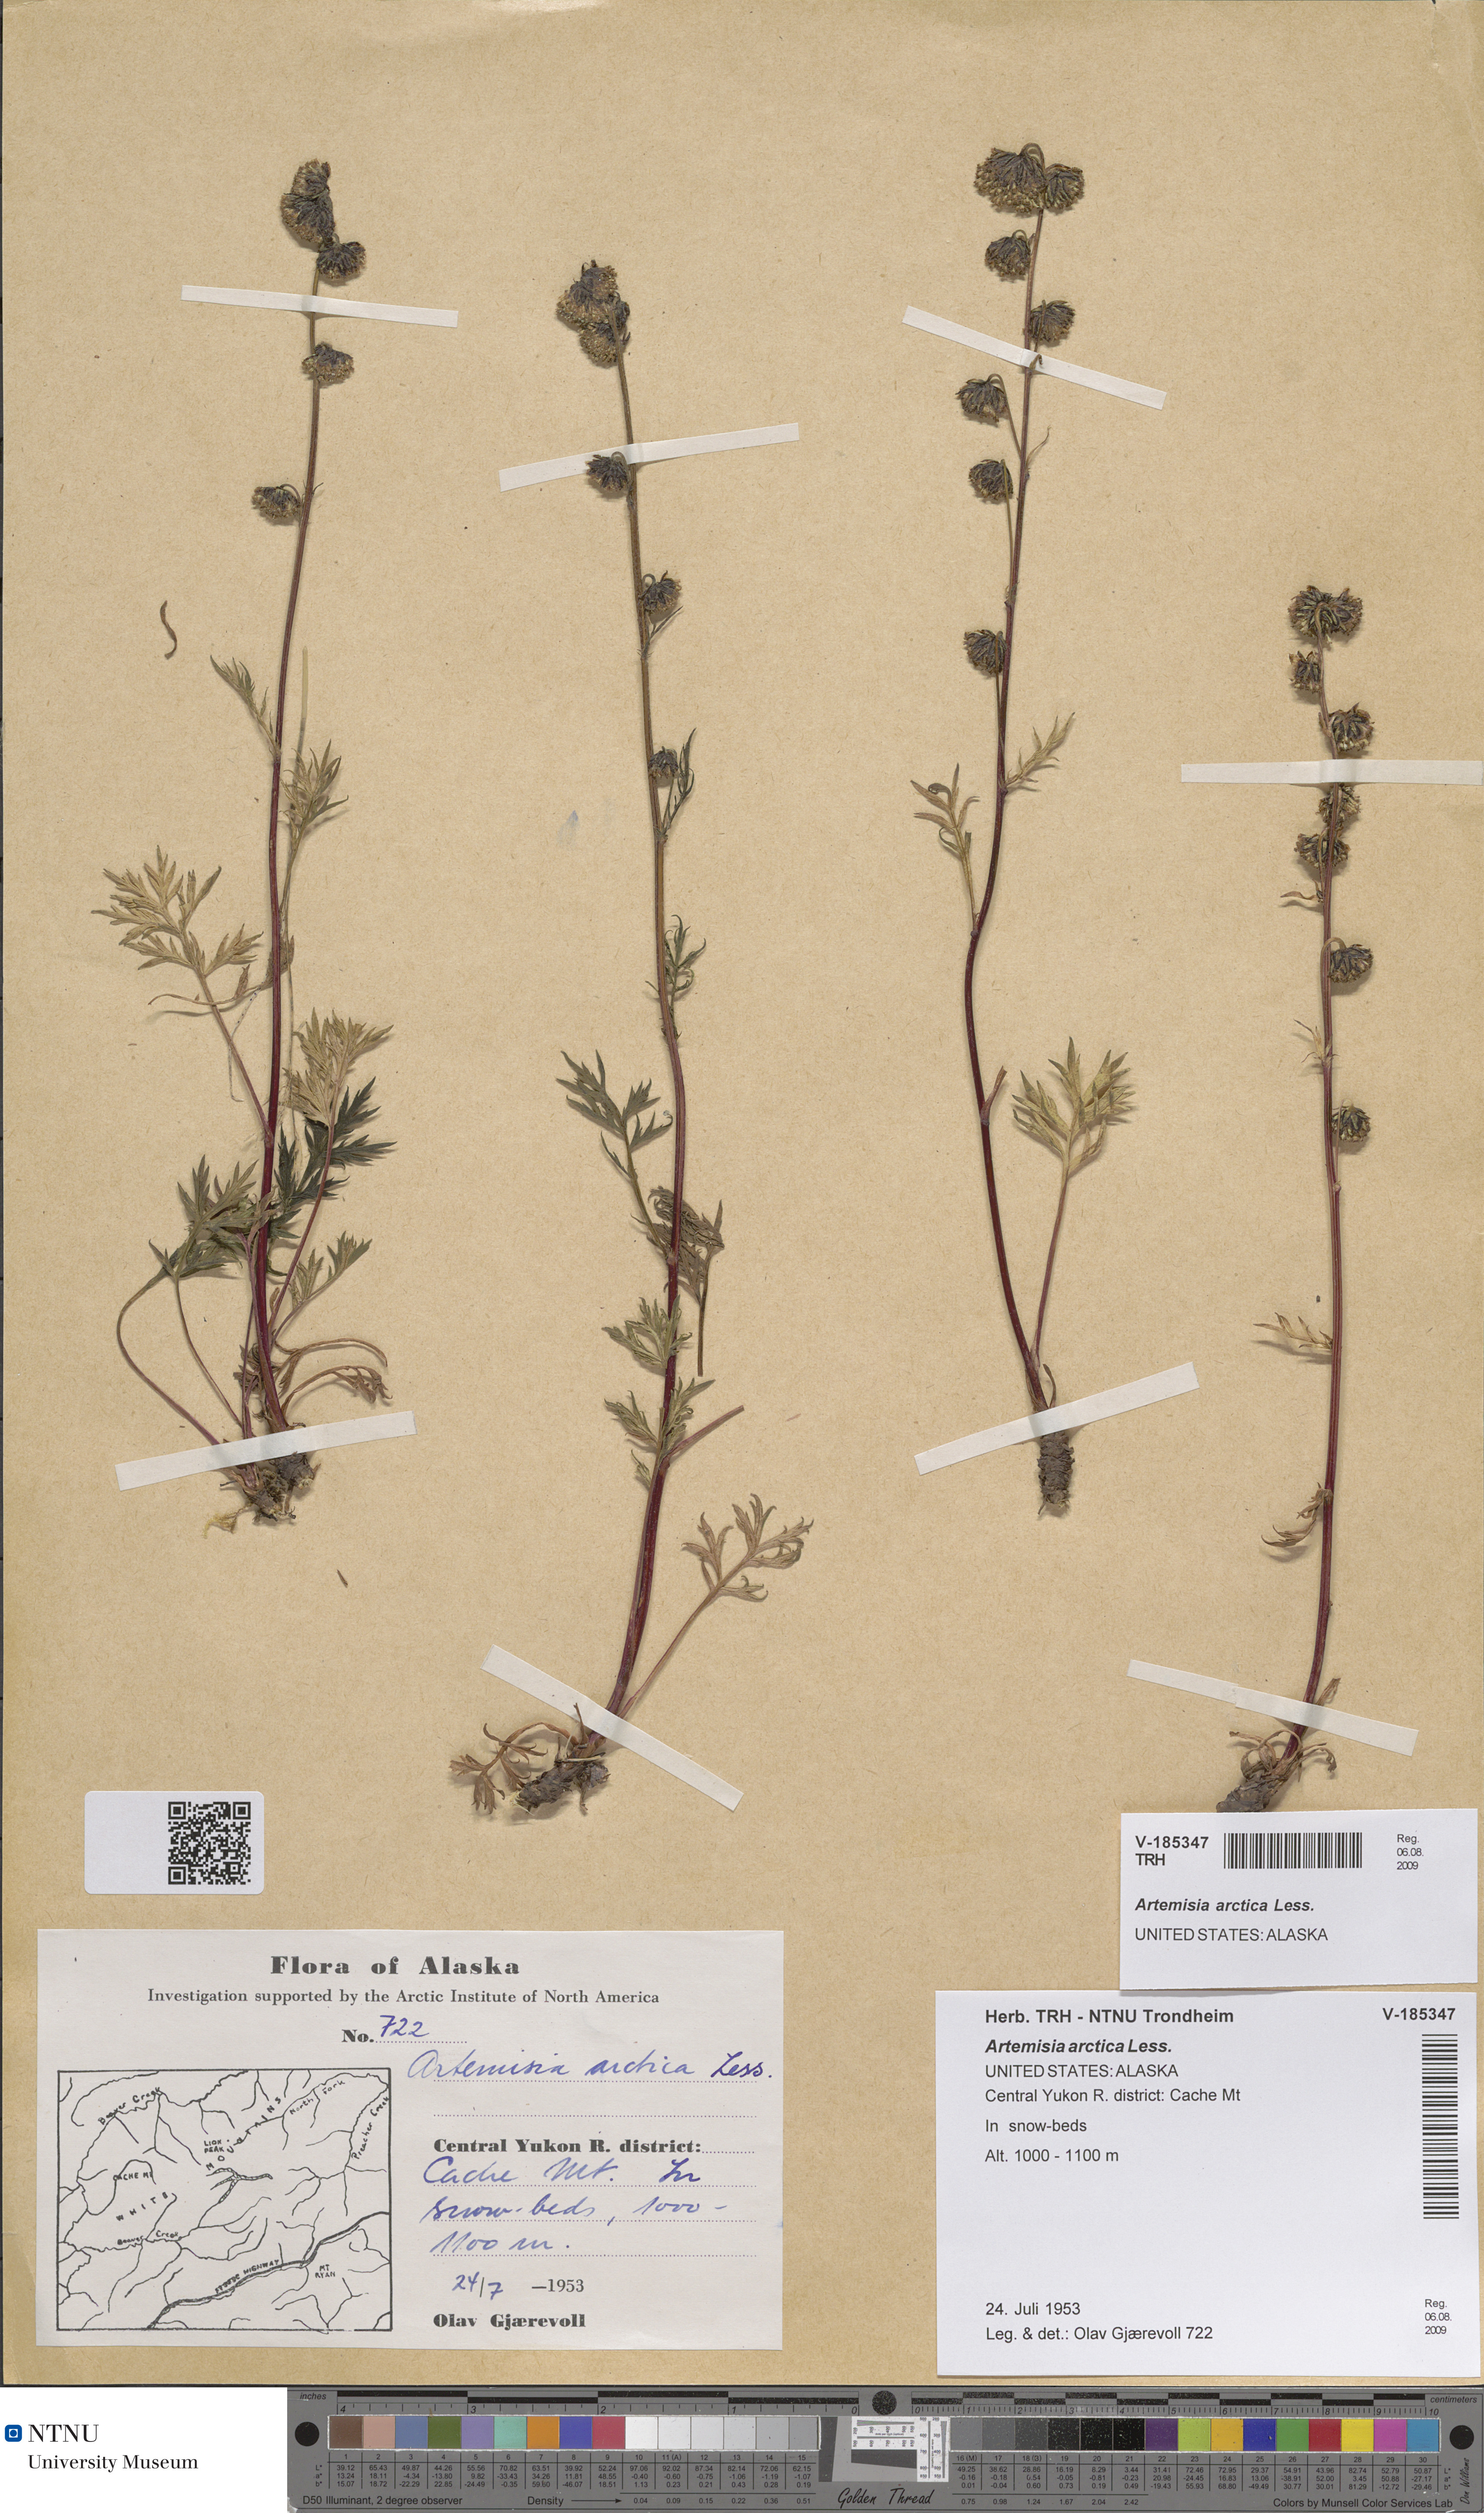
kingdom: Plantae
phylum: Tracheophyta
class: Magnoliopsida
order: Asterales
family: Asteraceae
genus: Artemisia
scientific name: Artemisia norvegica
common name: Norwegian mugwort
